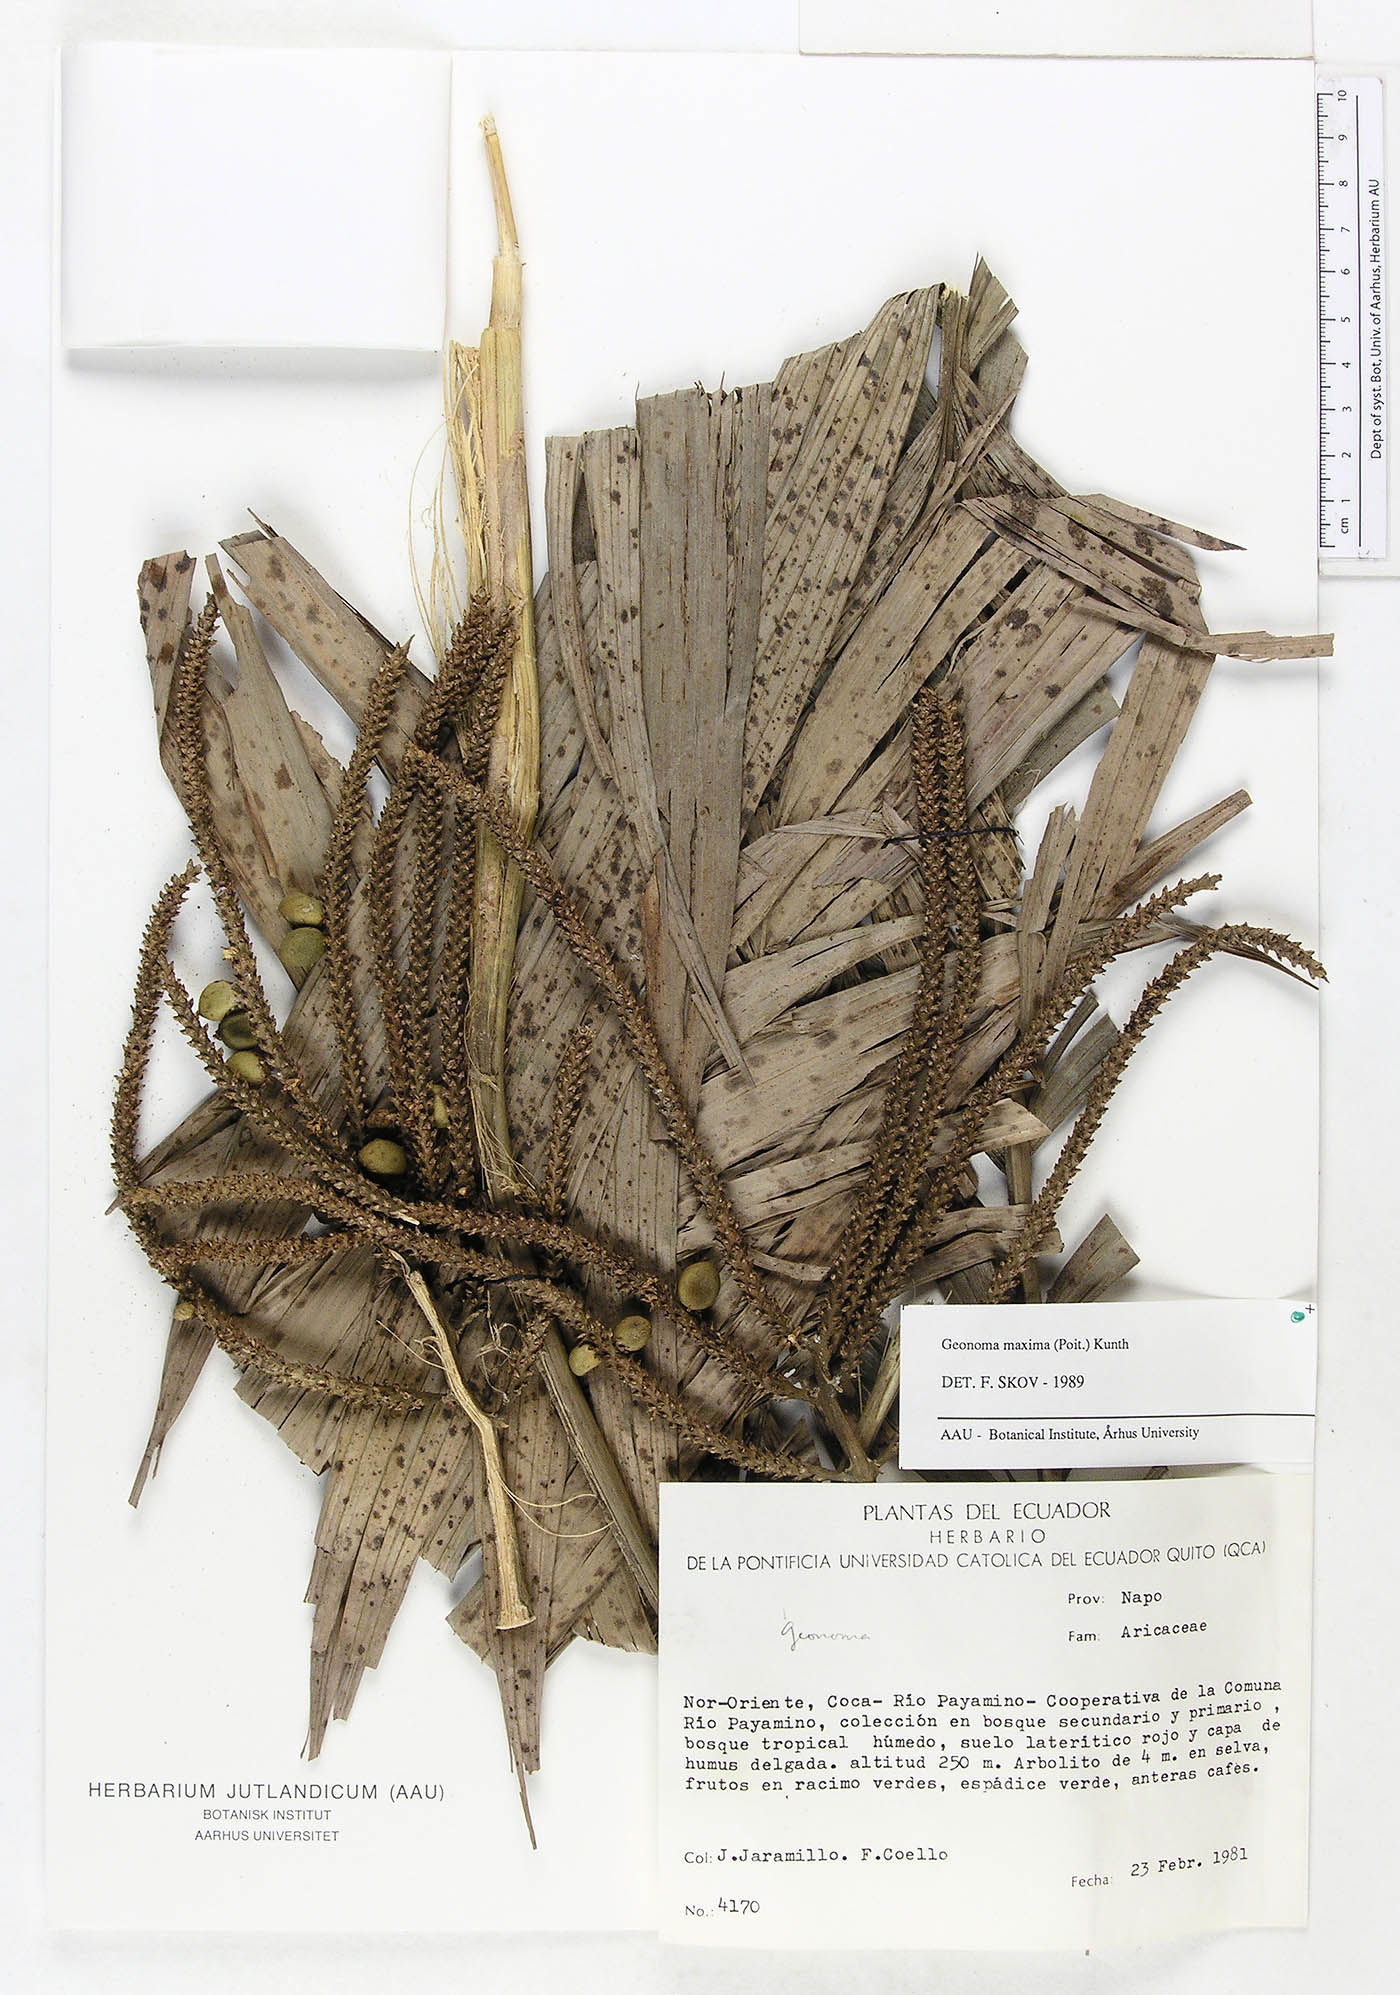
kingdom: Plantae
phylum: Tracheophyta
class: Liliopsida
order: Arecales
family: Arecaceae
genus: Geonoma
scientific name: Geonoma maxima
